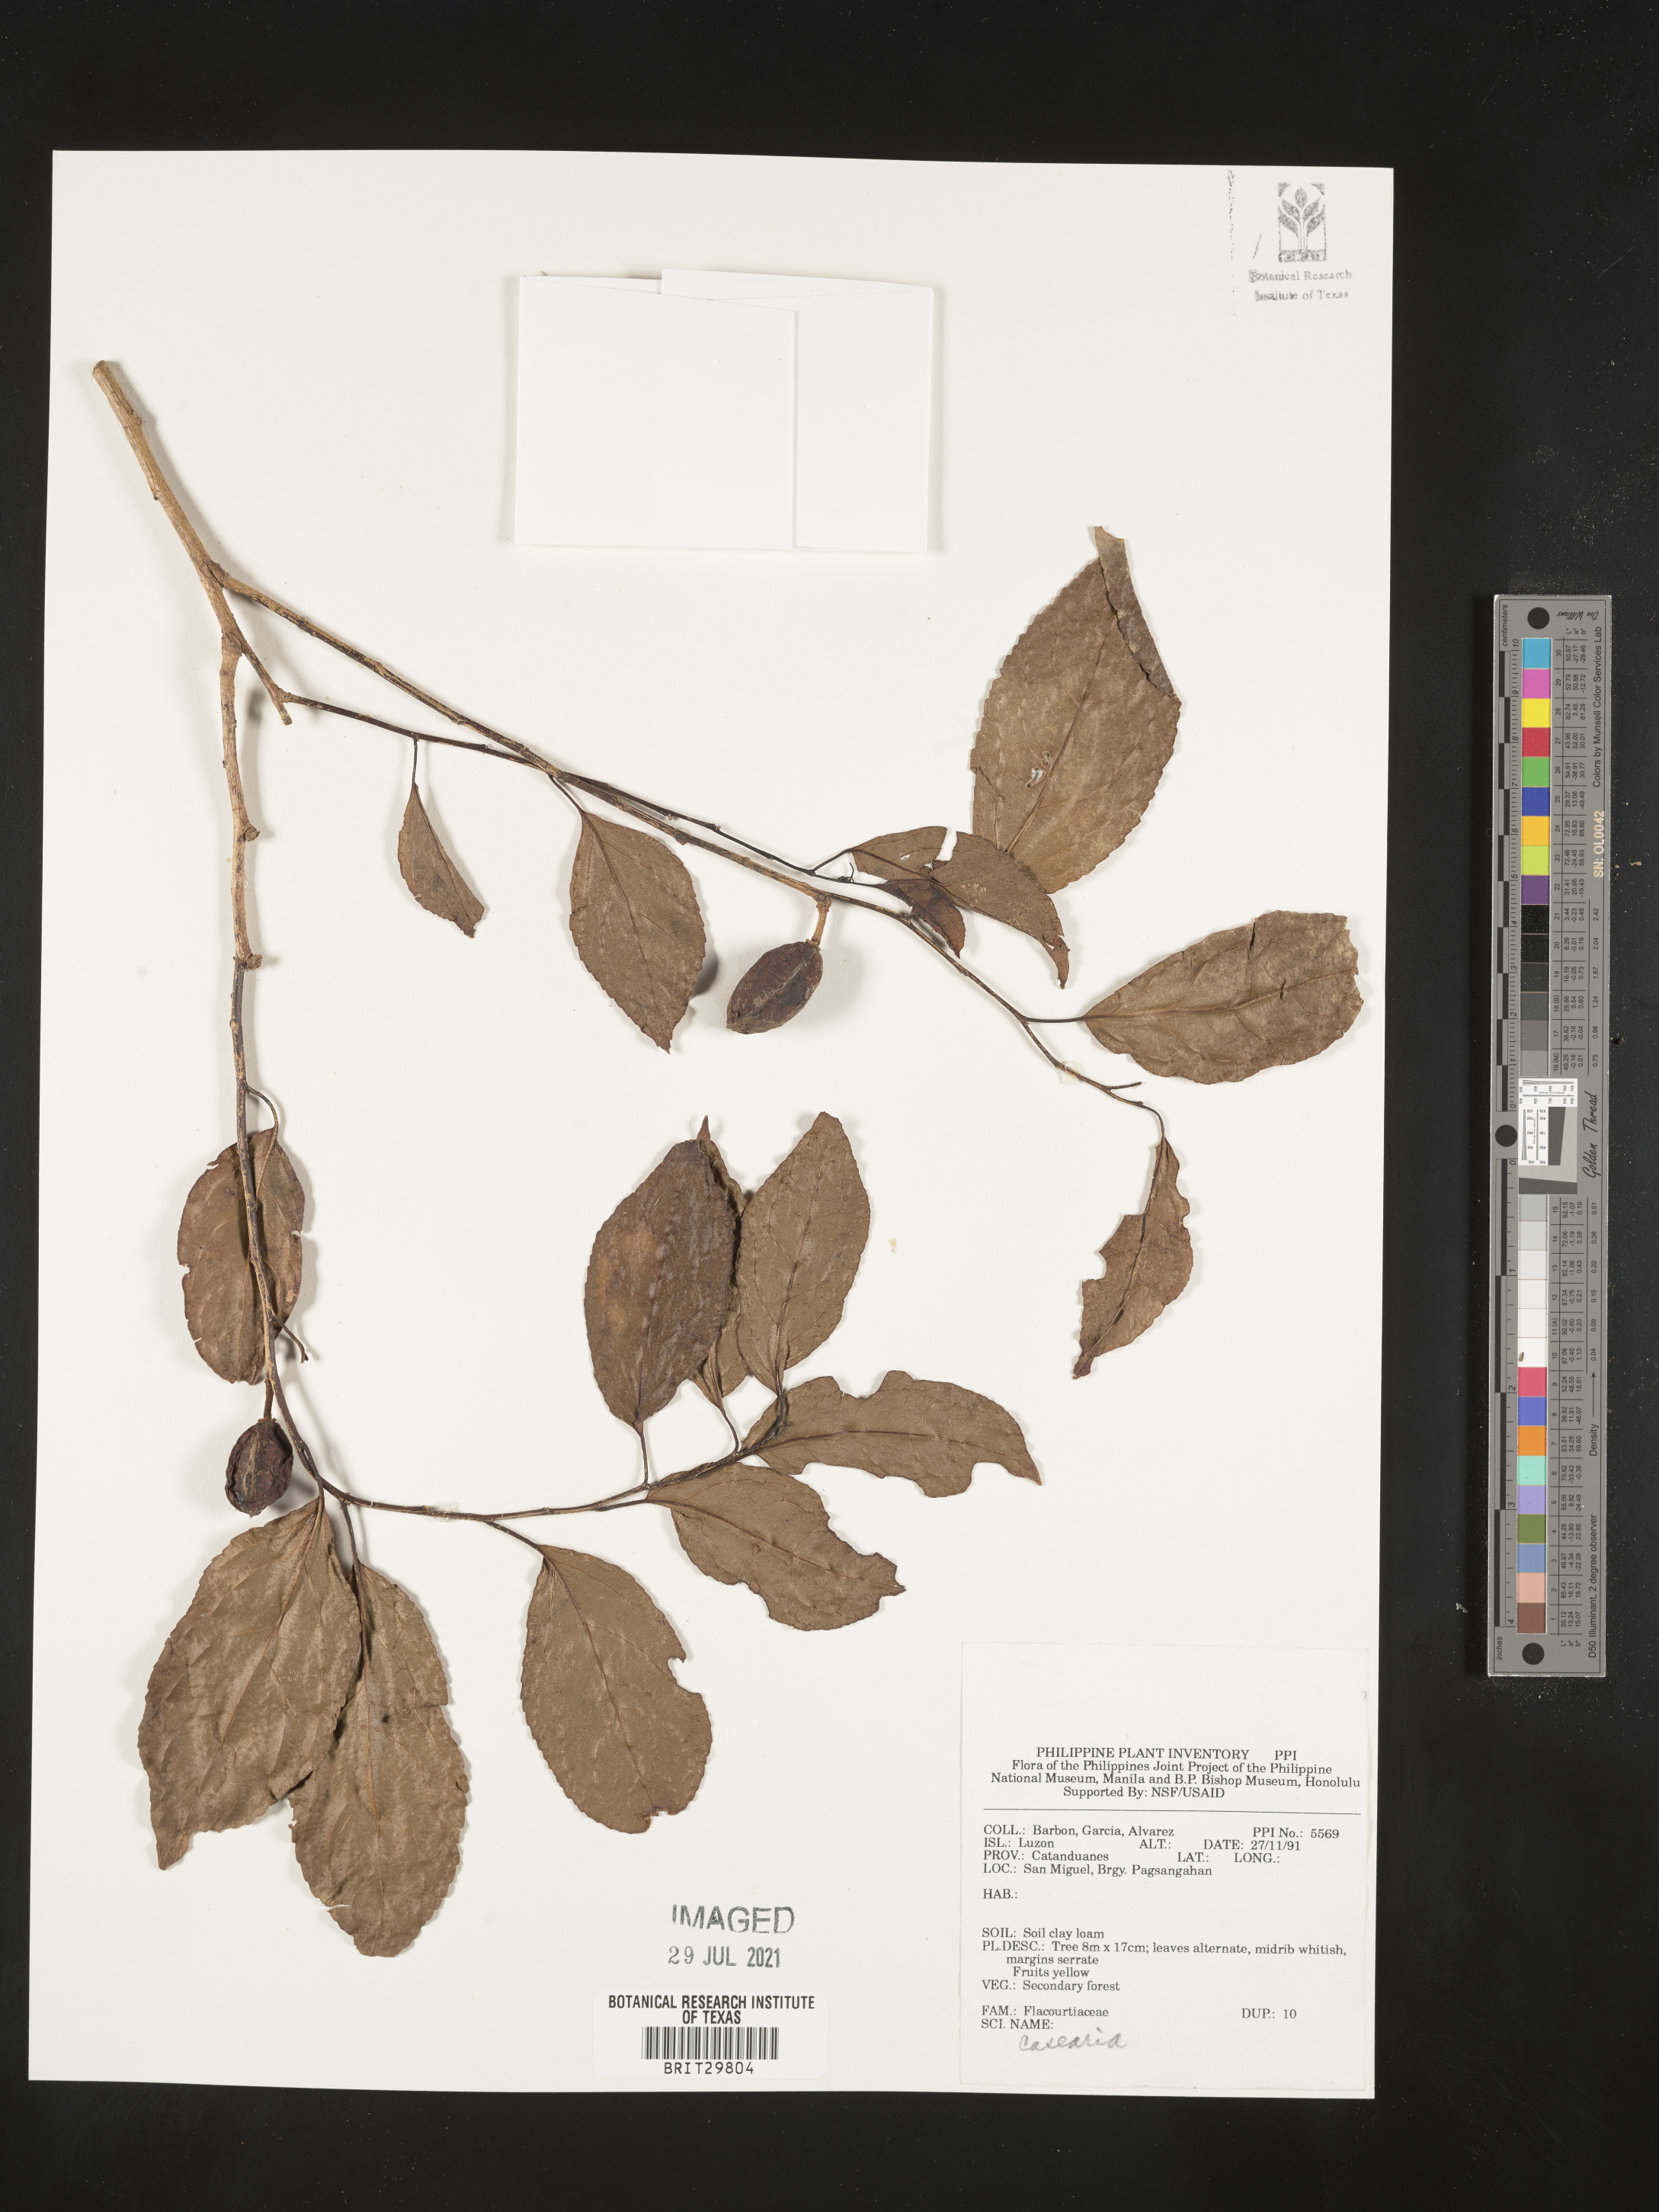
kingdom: Plantae
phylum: Tracheophyta
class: Magnoliopsida
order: Malpighiales
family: Salicaceae
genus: Casearia
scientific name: Casearia
